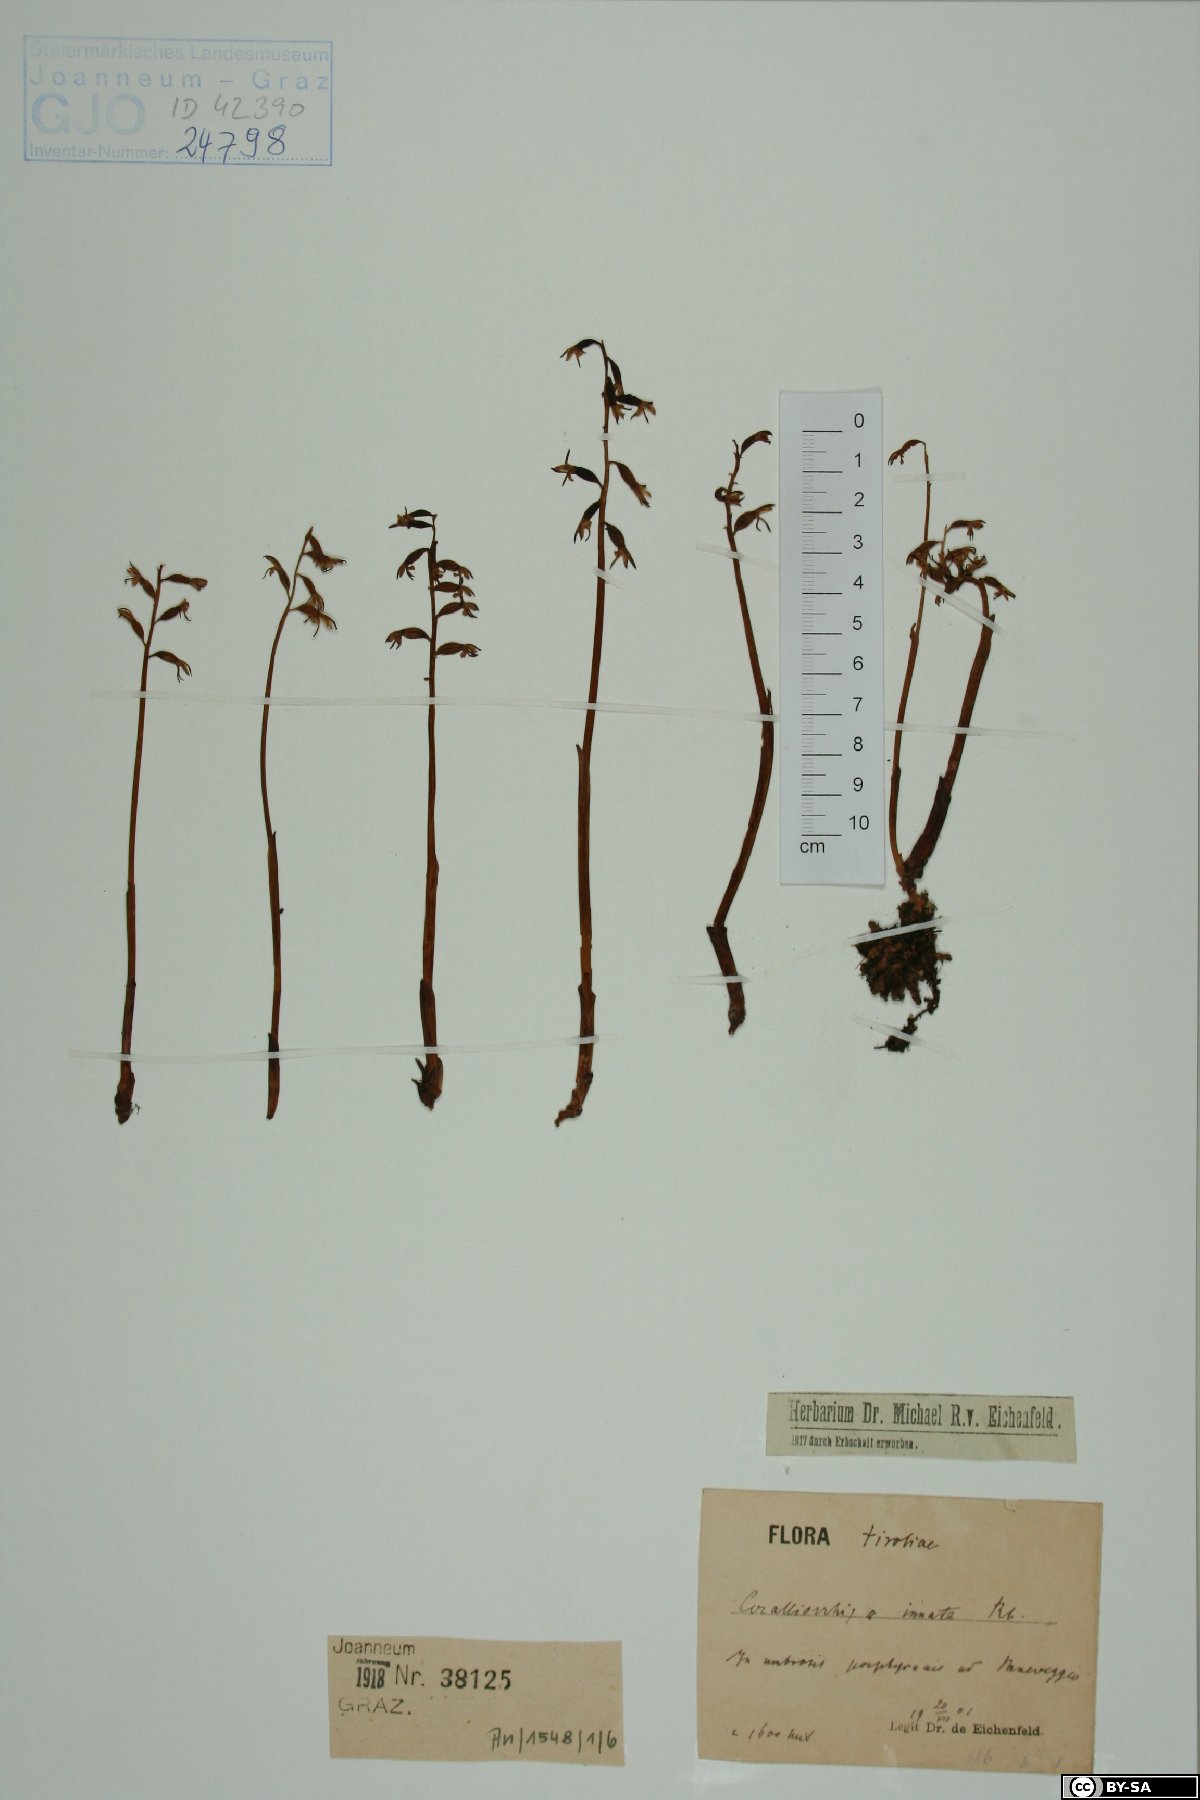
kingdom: Plantae
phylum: Tracheophyta
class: Liliopsida
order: Asparagales
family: Orchidaceae
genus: Corallorhiza
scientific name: Corallorhiza trifida
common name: Yellow coralroot
